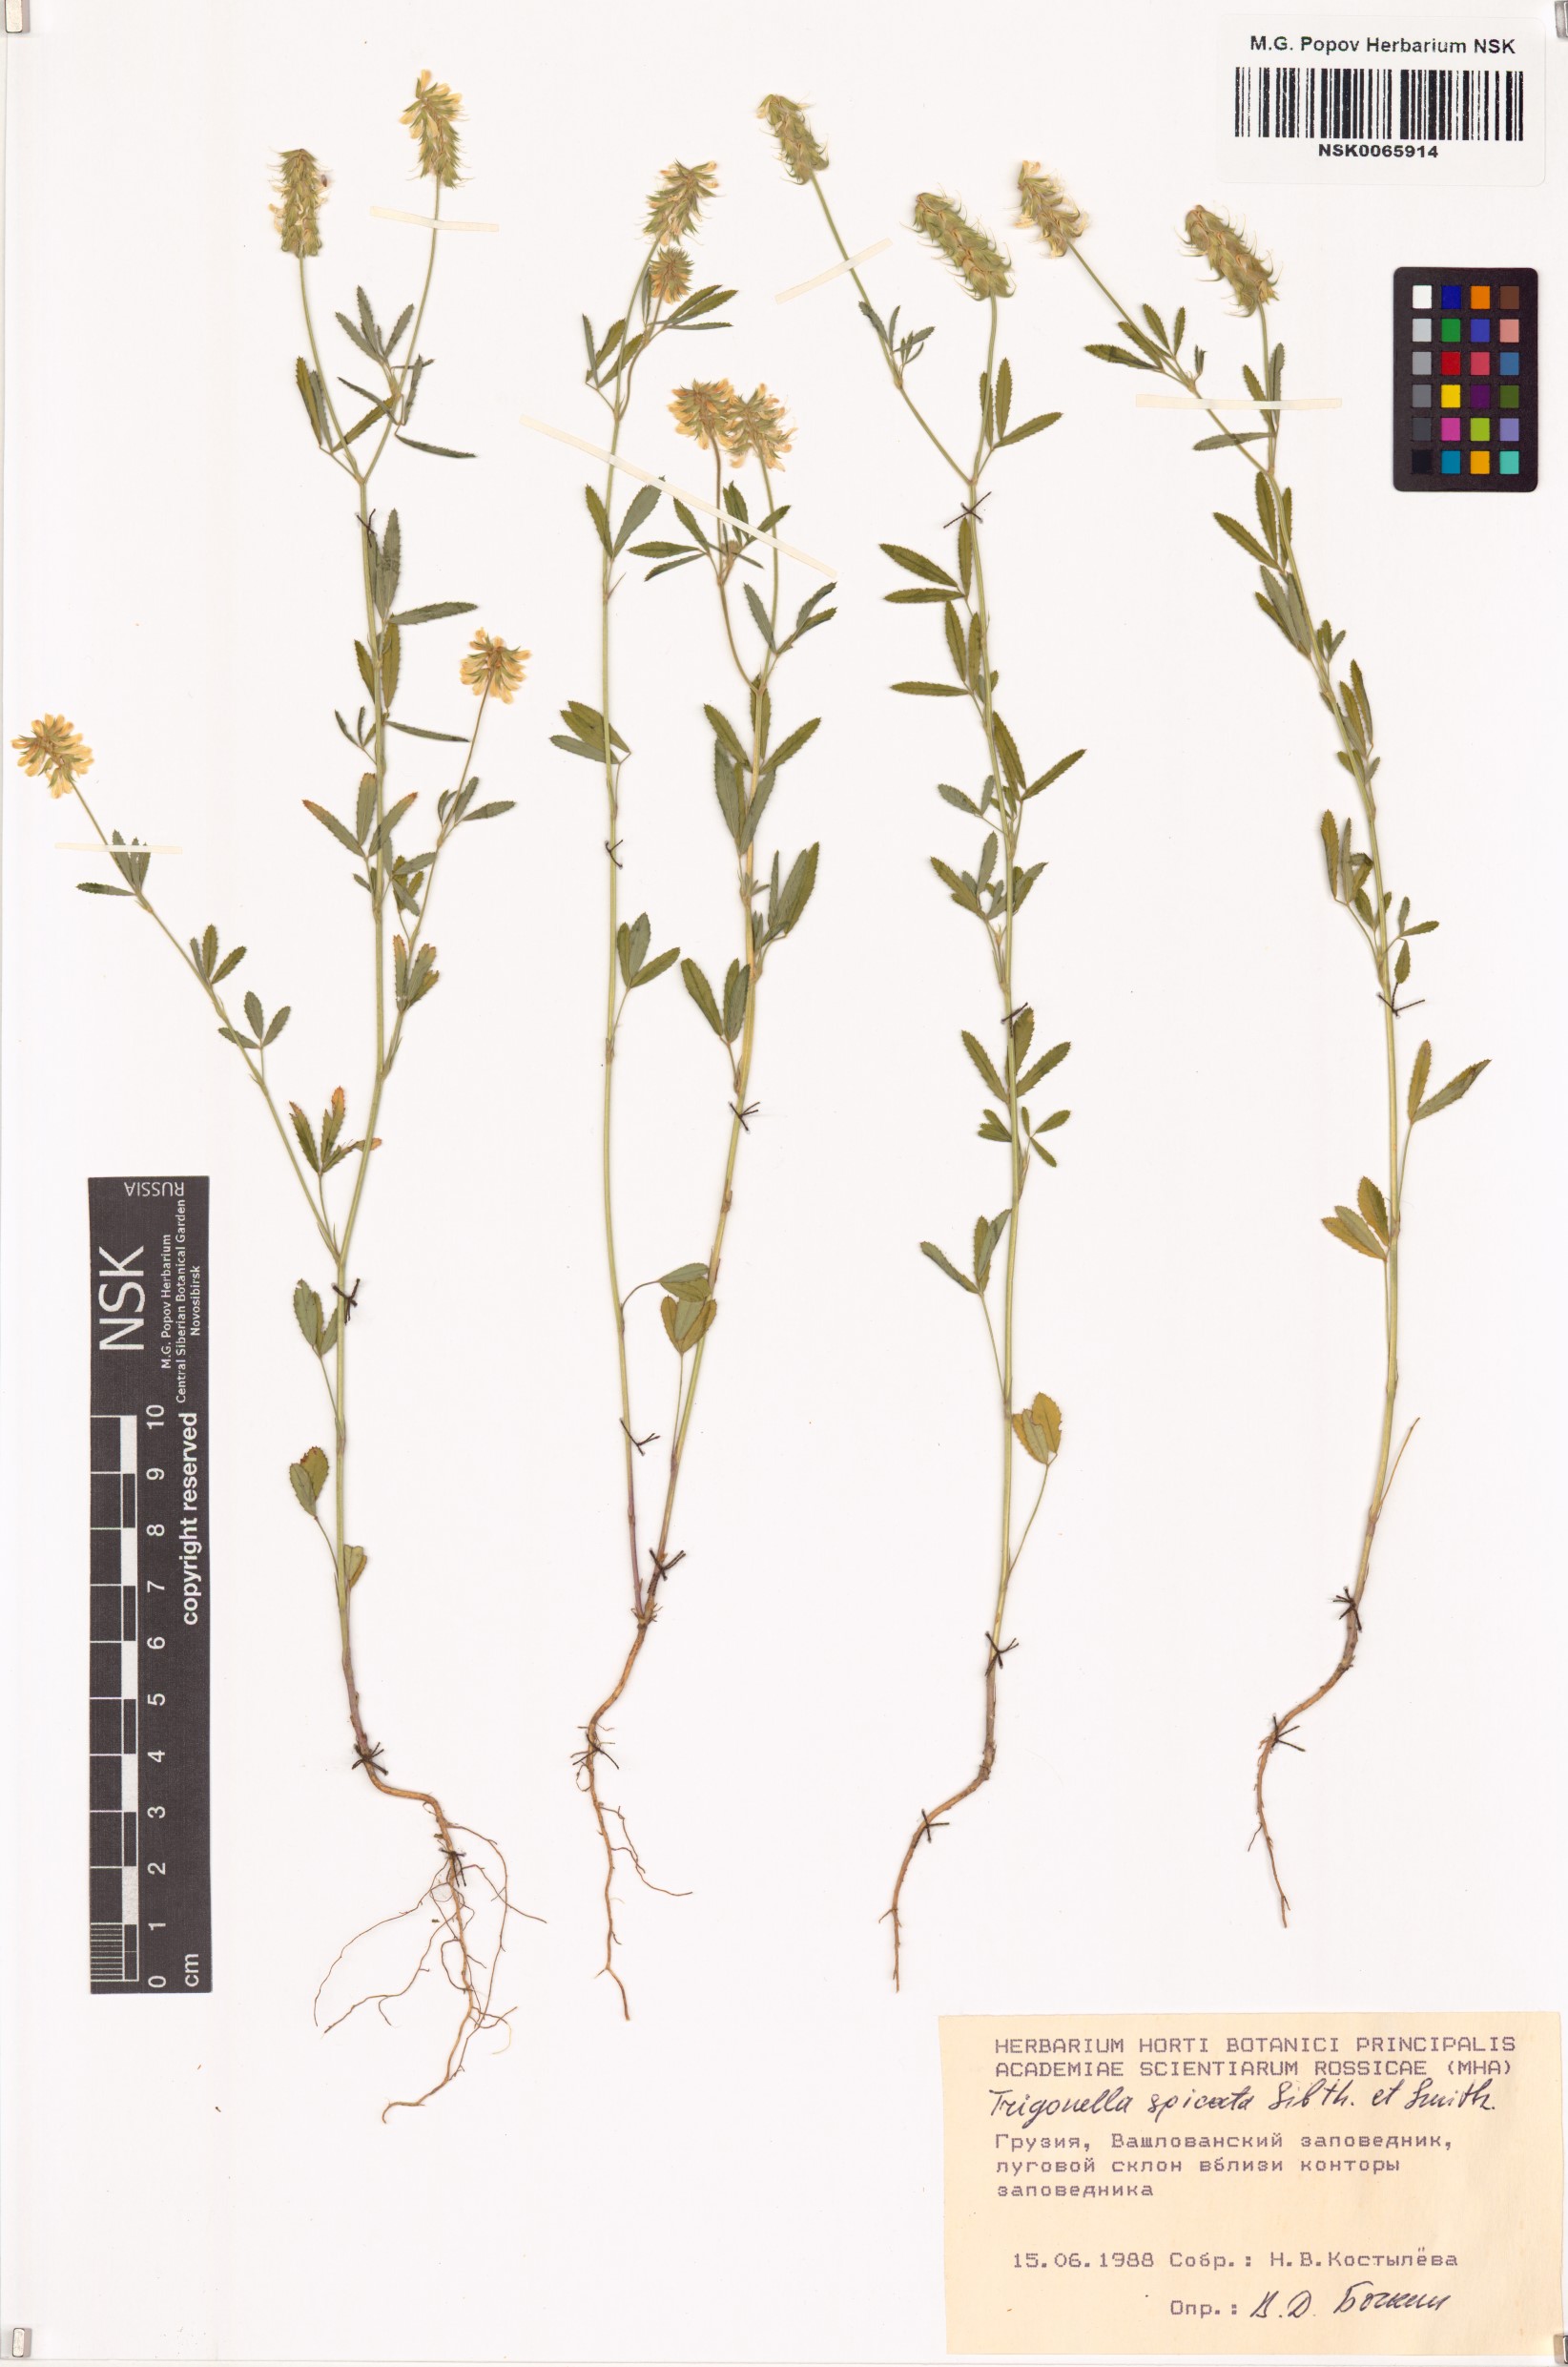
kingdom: Plantae
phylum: Tracheophyta
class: Magnoliopsida
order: Fabales
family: Fabaceae
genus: Trigonella
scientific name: Trigonella spicata
